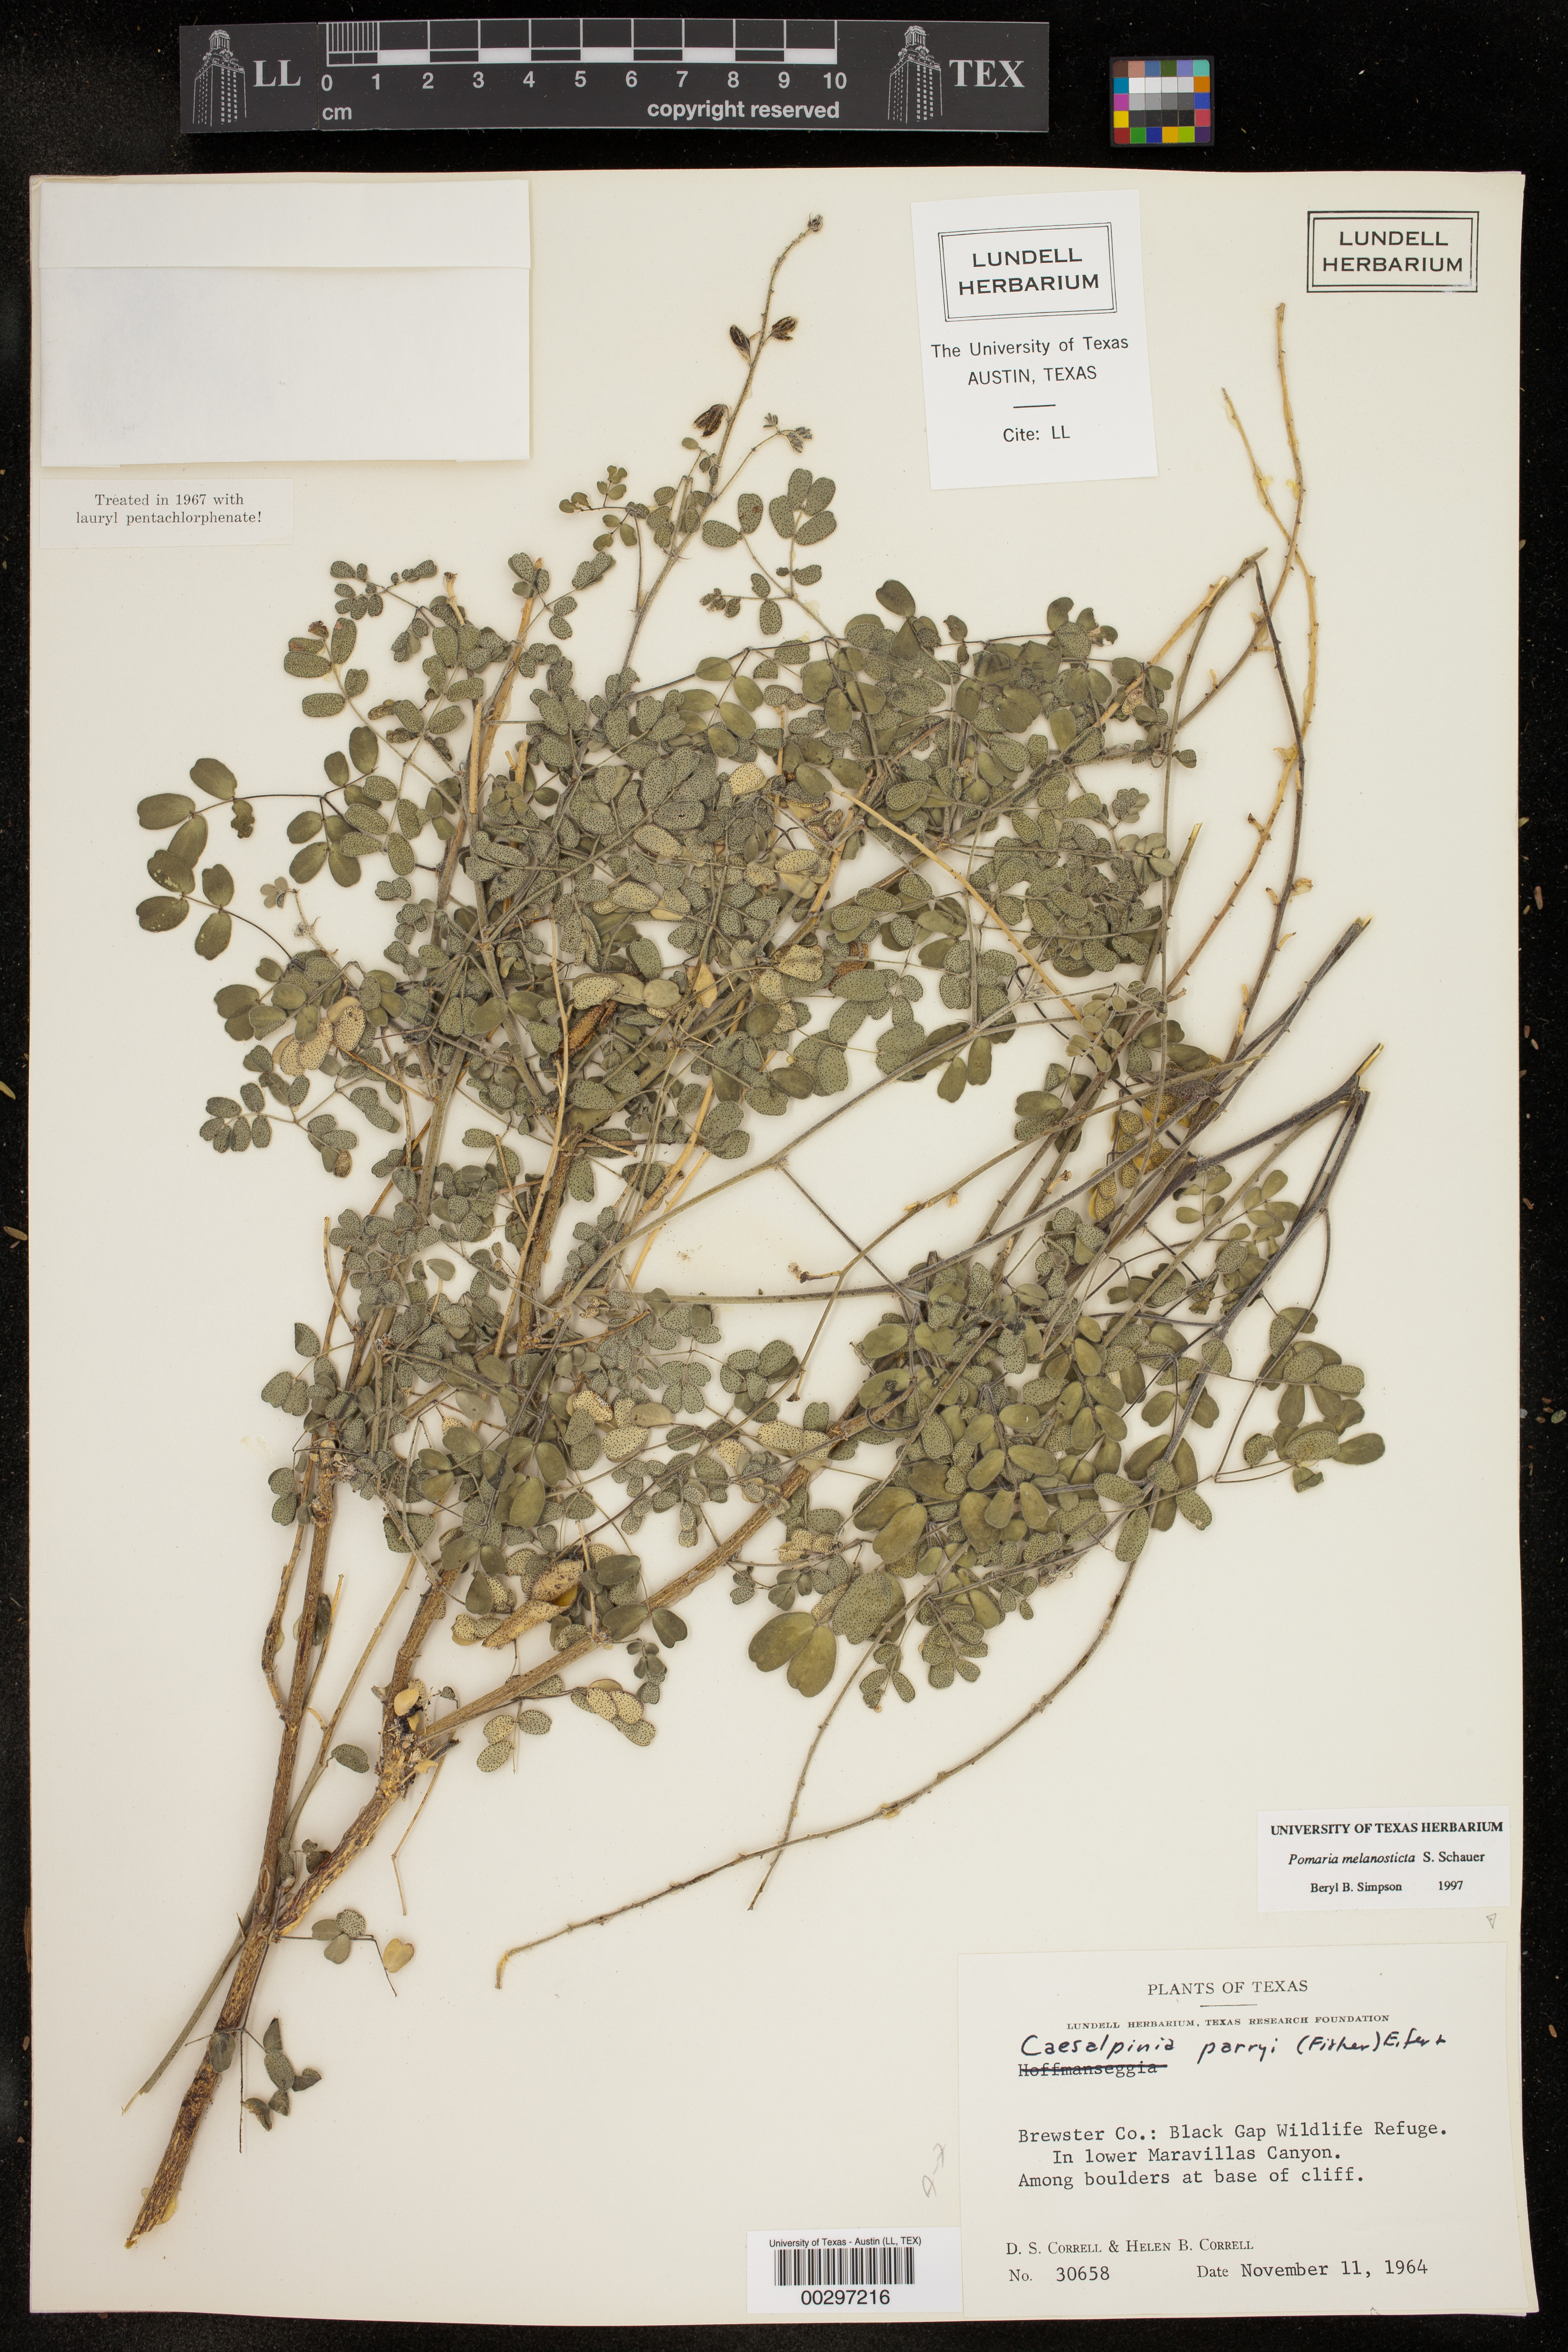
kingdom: Plantae
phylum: Tracheophyta
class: Magnoliopsida
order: Fabales
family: Fabaceae
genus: Pomaria
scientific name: Pomaria melanosticta
